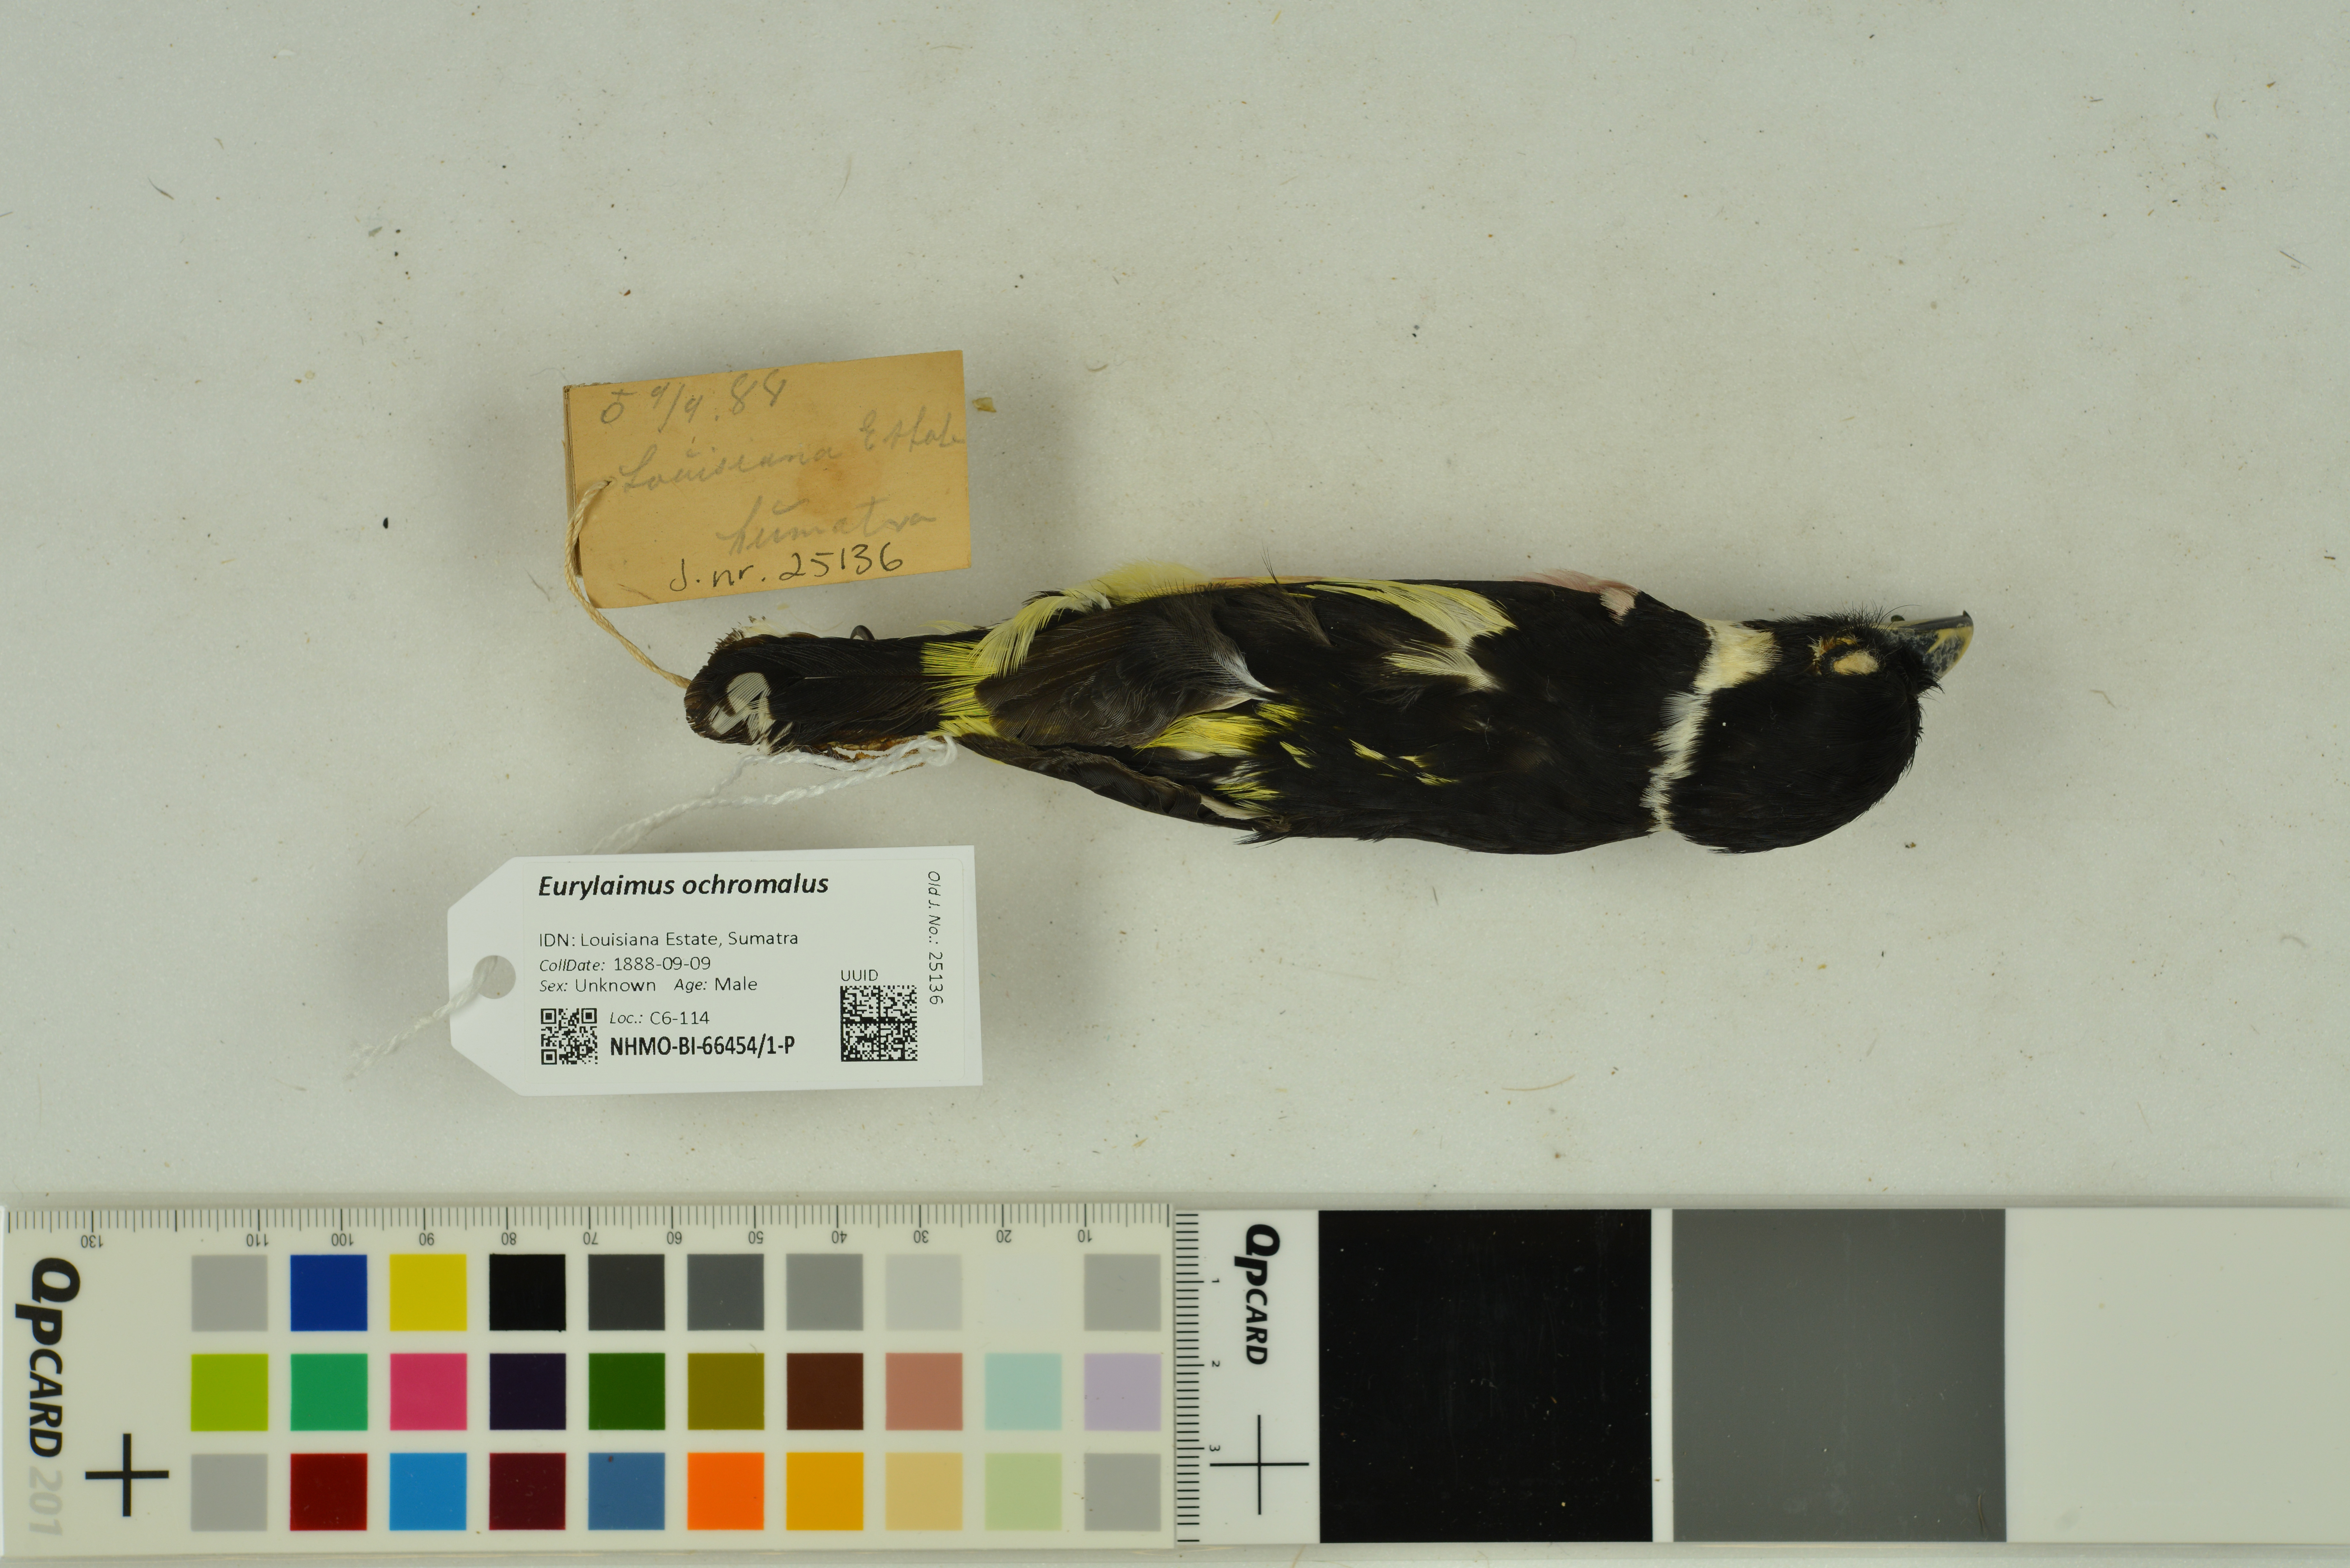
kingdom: Animalia
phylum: Chordata
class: Aves
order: Passeriformes
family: Eurylaimidae
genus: Eurylaimus
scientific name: Eurylaimus ochromalus
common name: Black-and-yellow broadbill
